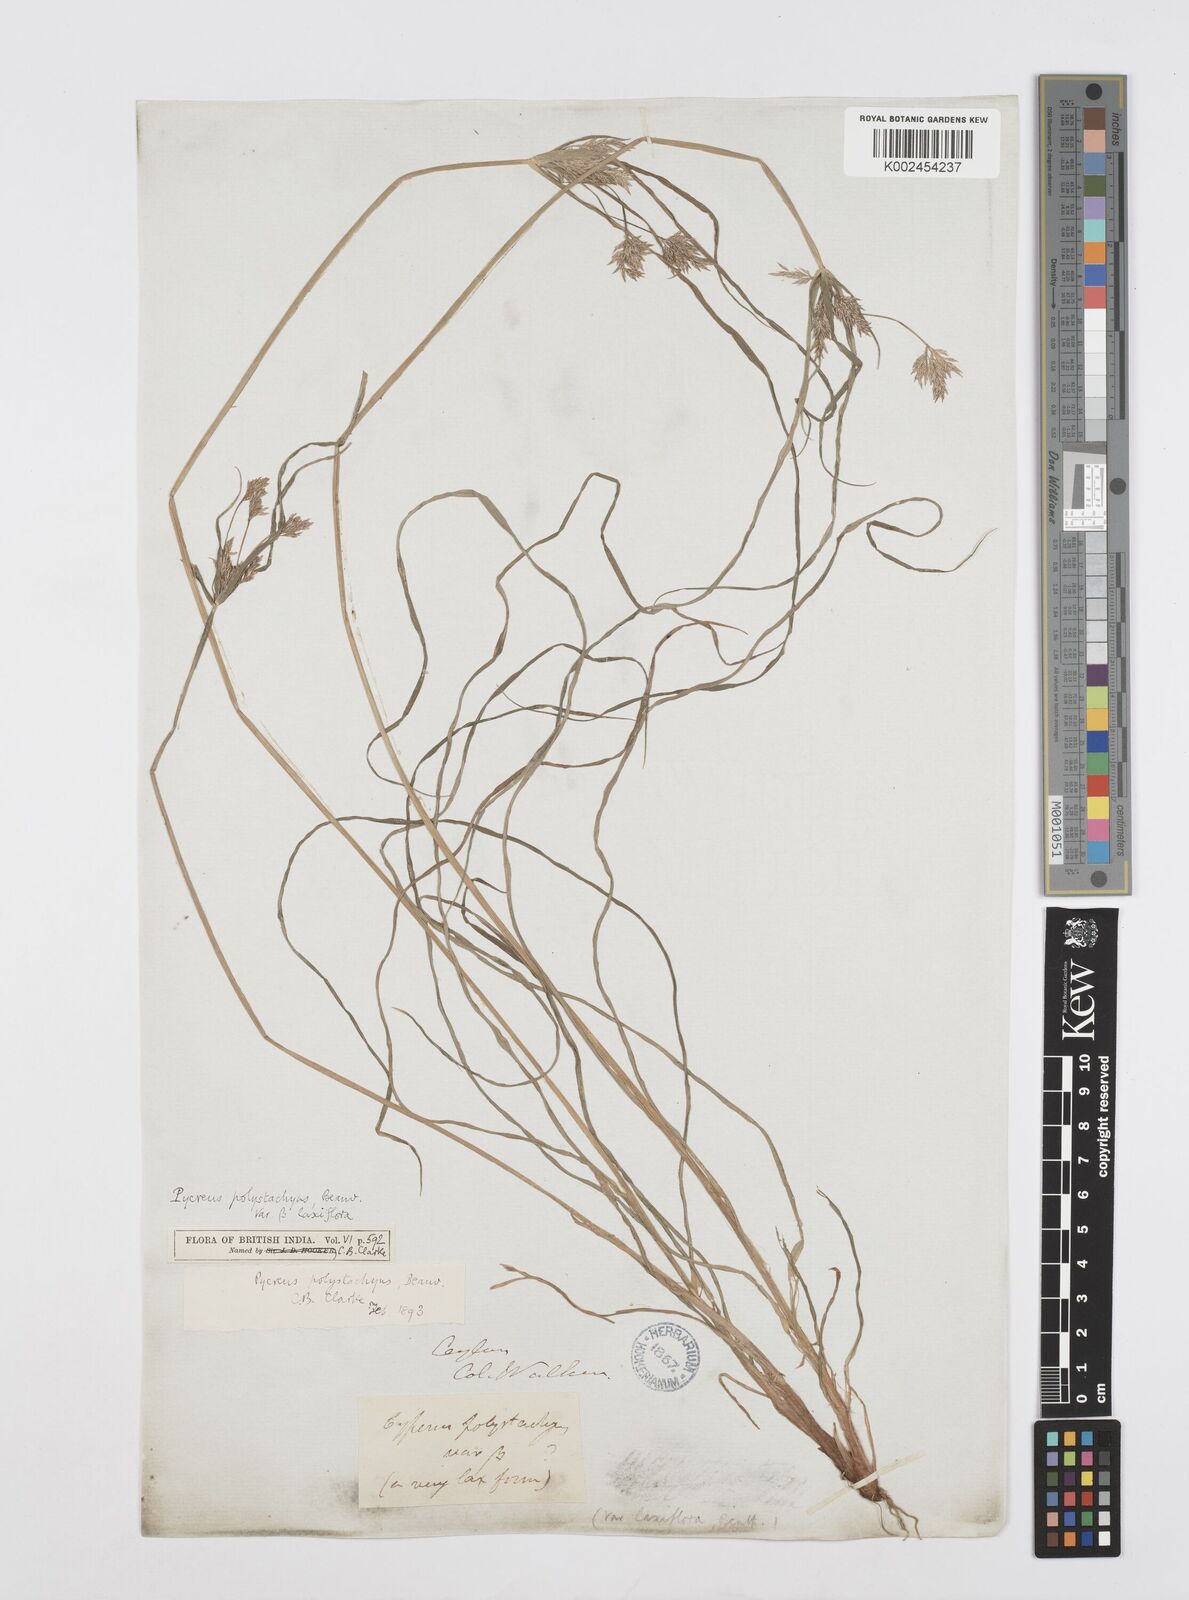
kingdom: Plantae
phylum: Tracheophyta
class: Liliopsida
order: Poales
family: Cyperaceae
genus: Cyperus
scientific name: Cyperus polystachyos
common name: Bunchy flat sedge
